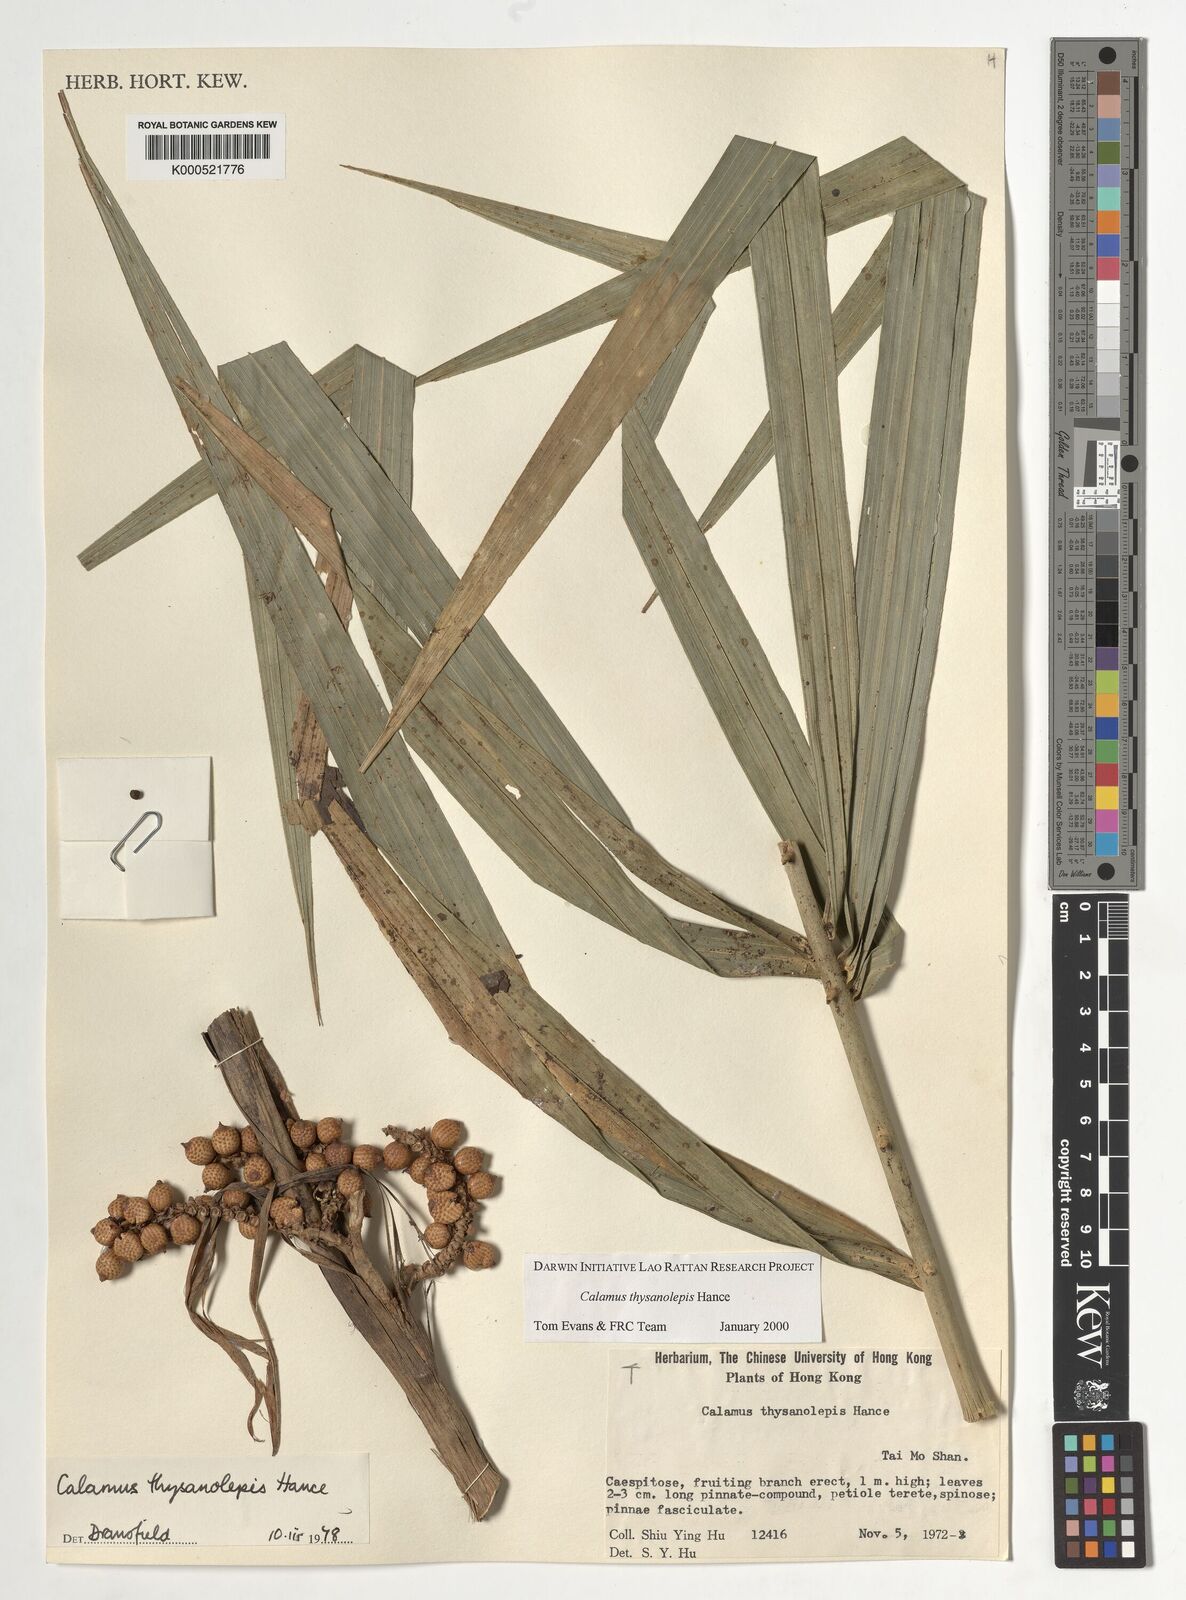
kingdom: Plantae
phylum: Tracheophyta
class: Liliopsida
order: Arecales
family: Arecaceae
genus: Calamus
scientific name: Calamus thysanolepis
